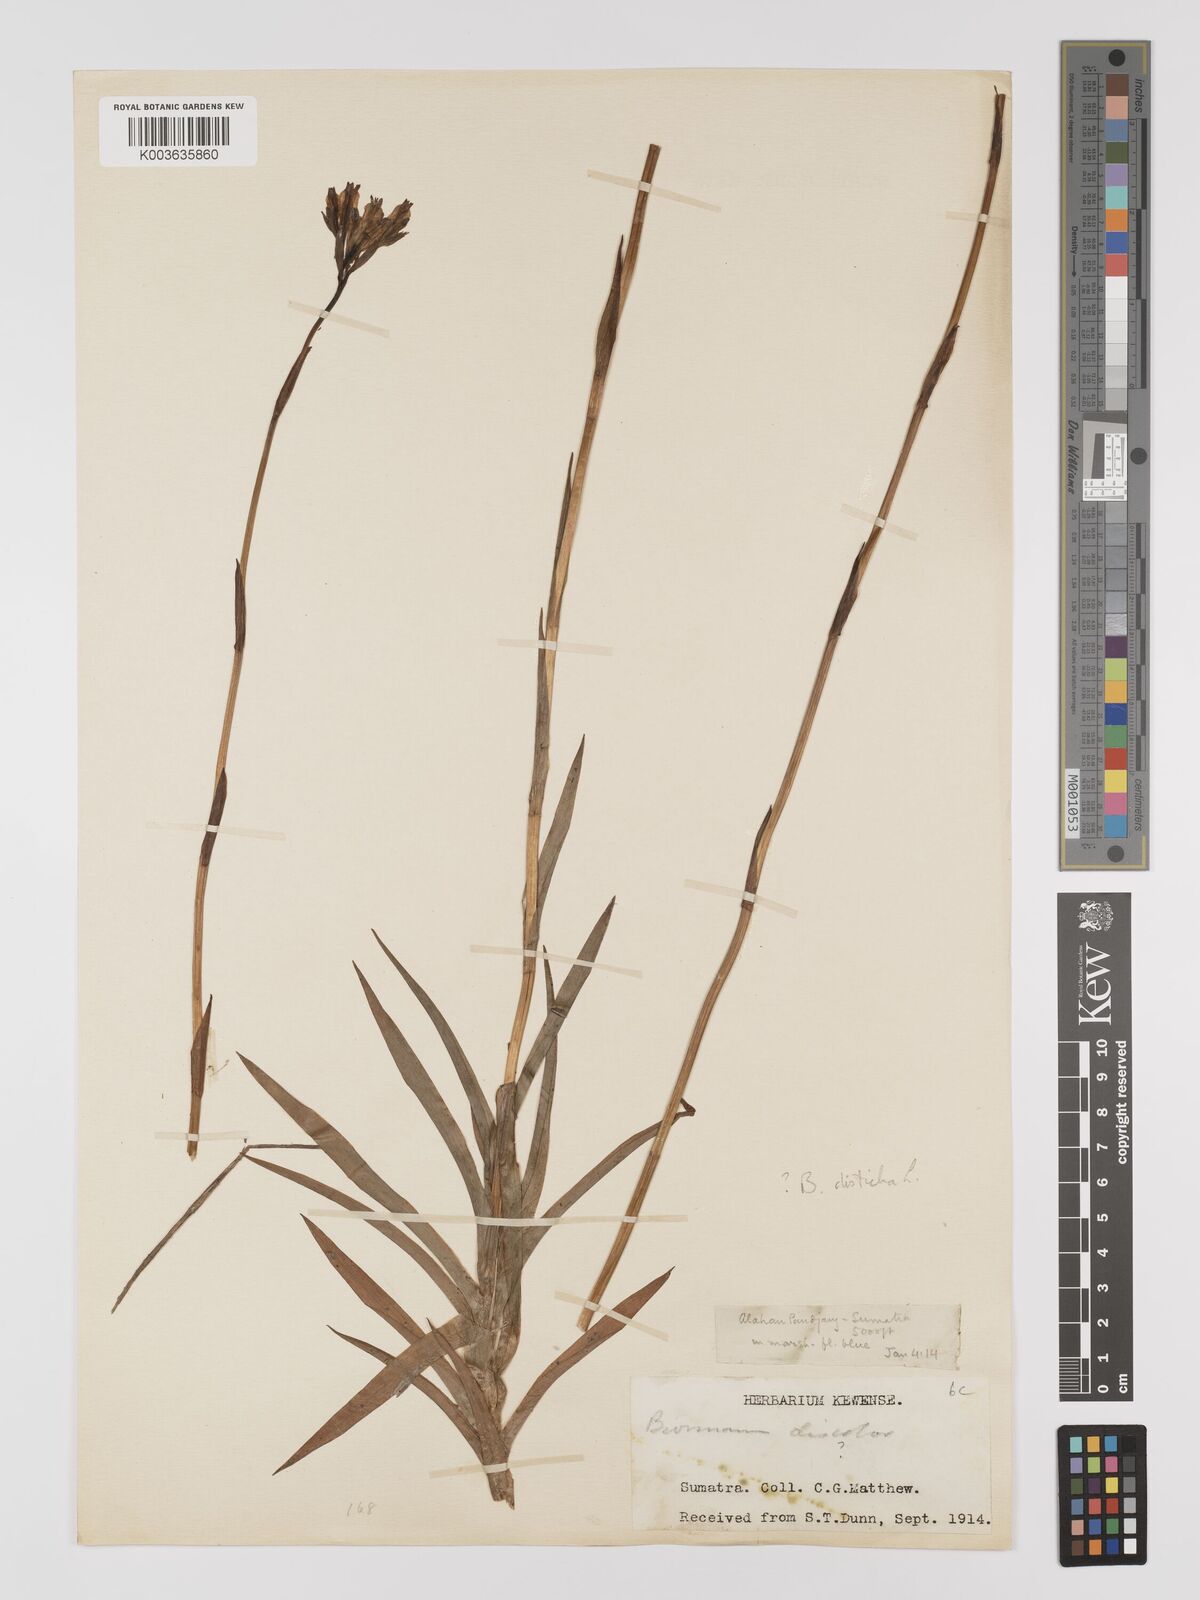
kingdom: Plantae
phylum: Tracheophyta
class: Liliopsida
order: Dioscoreales
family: Burmanniaceae
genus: Burmannia
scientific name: Burmannia disticha
